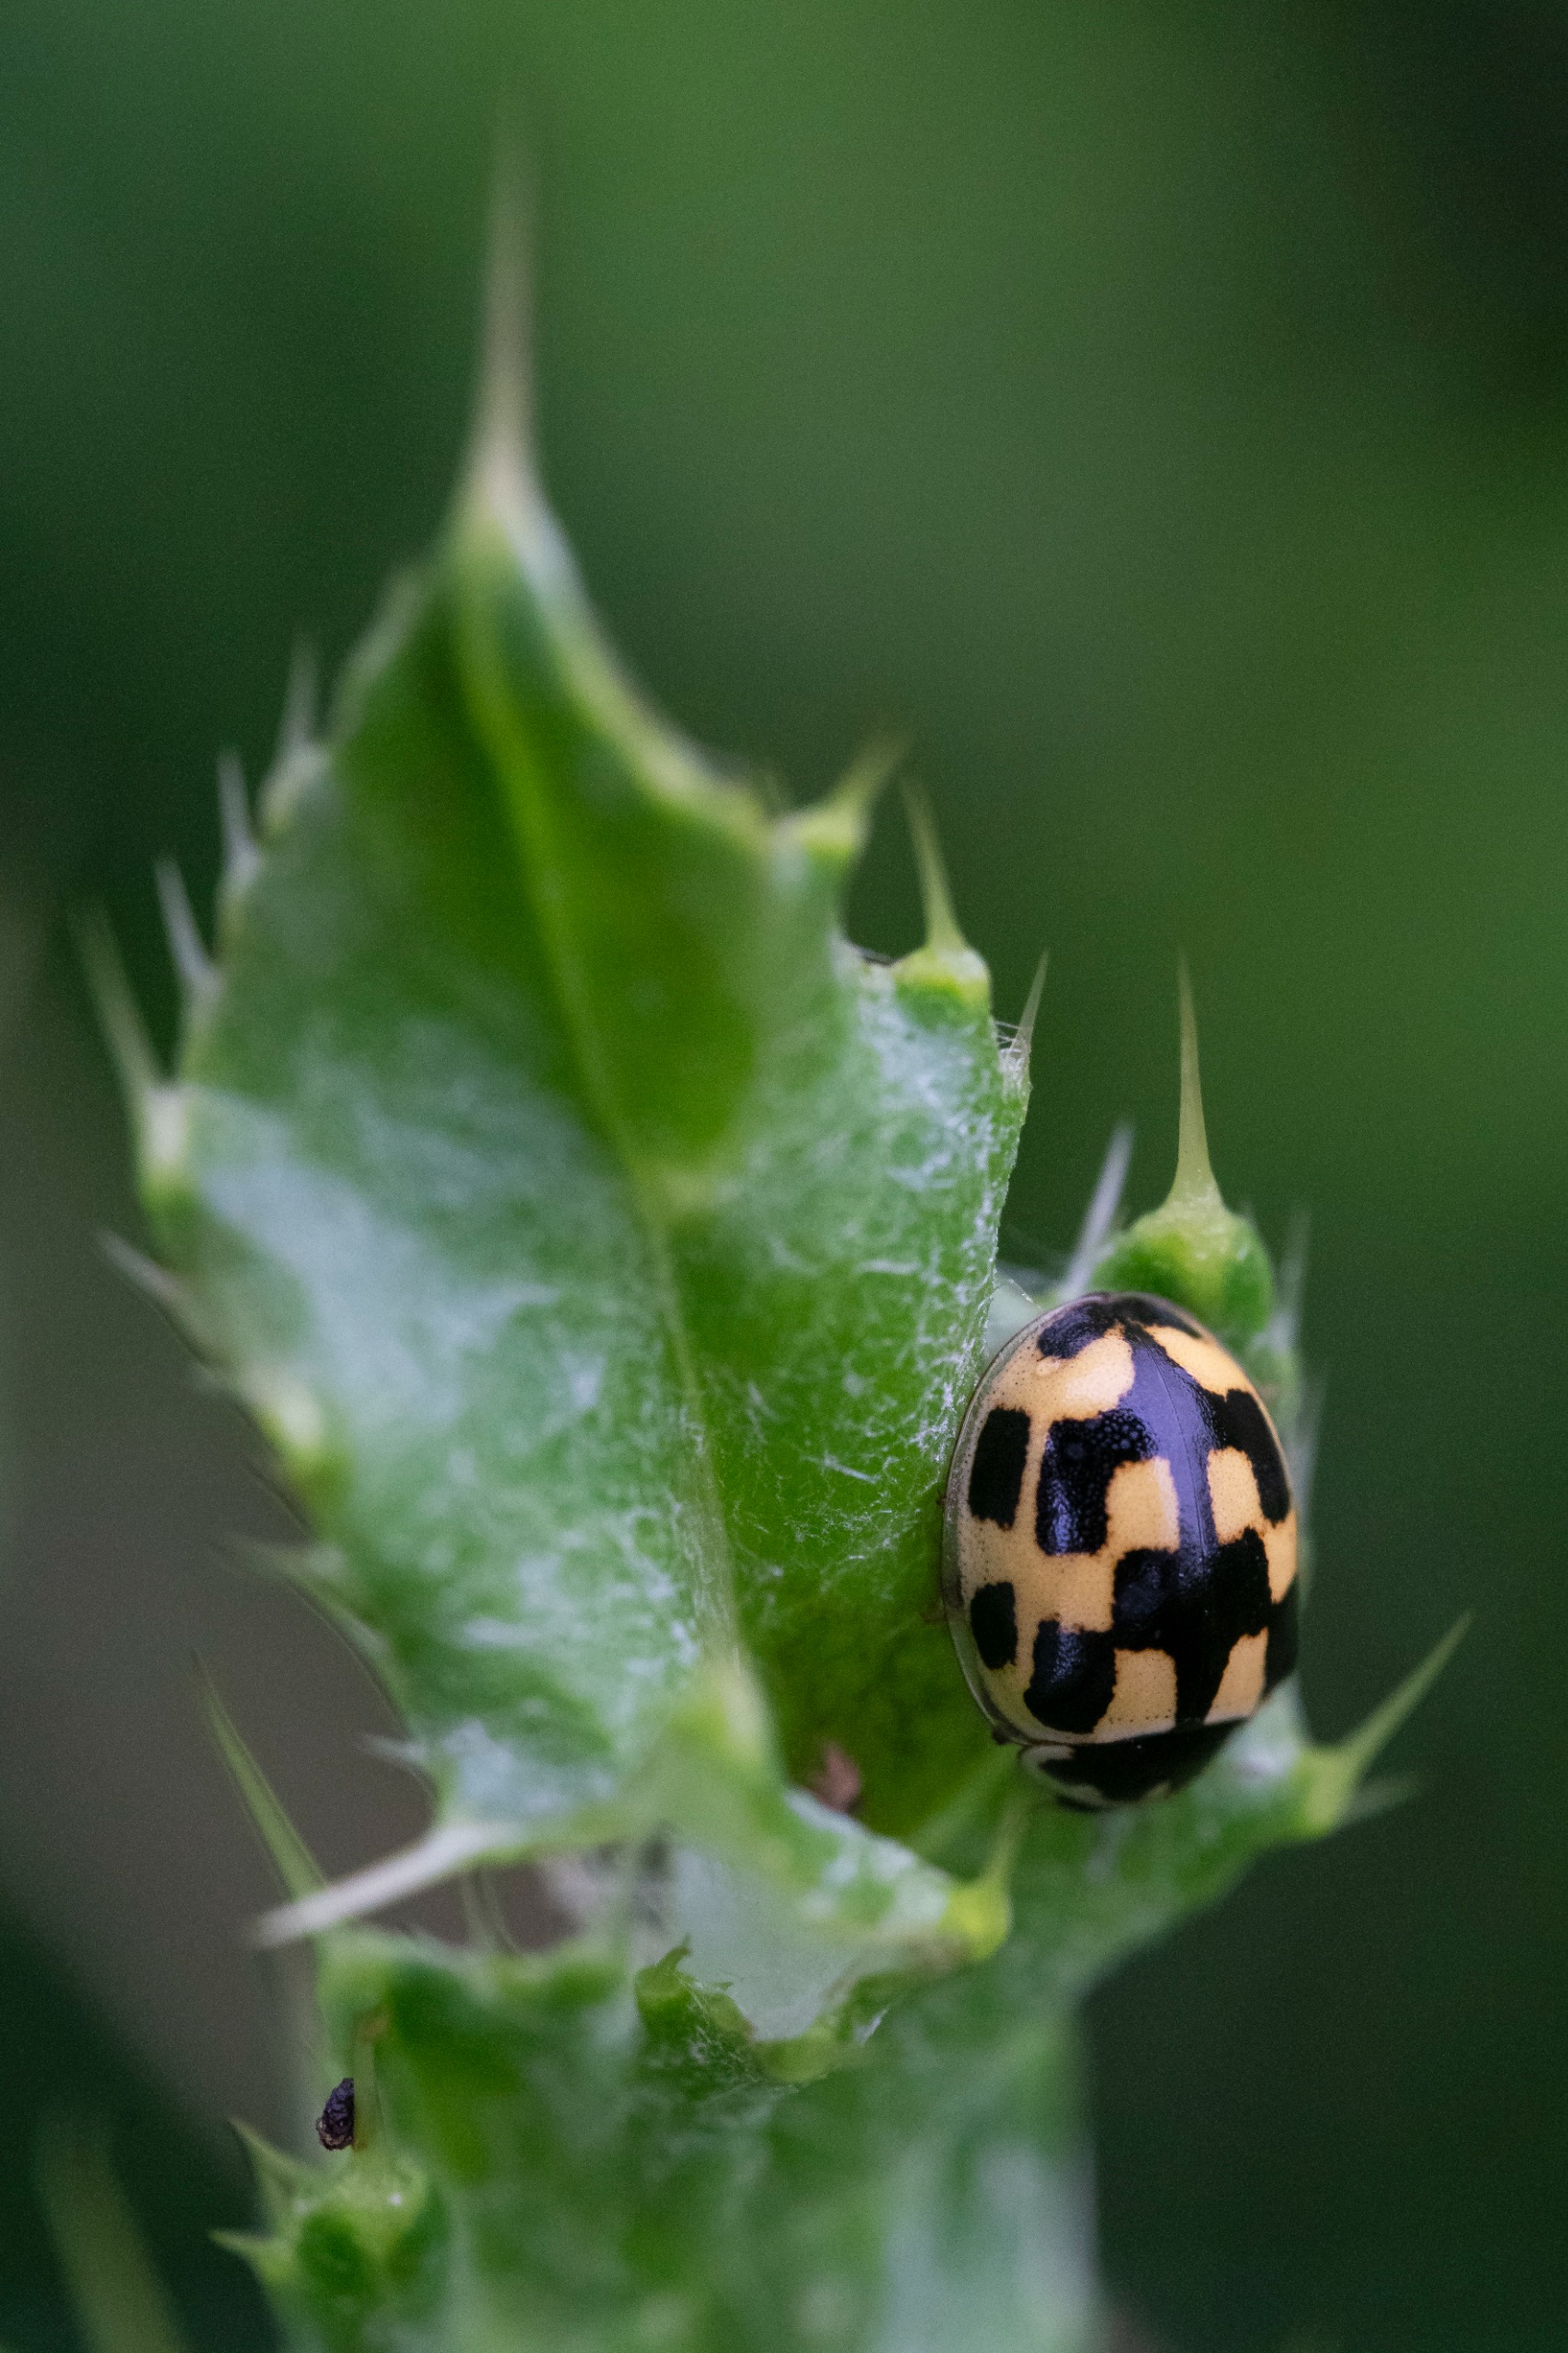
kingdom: Animalia
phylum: Arthropoda
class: Insecta
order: Coleoptera
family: Coccinellidae
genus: Propylaea
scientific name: Propylaea quatuordecimpunctata
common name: Skakbræt
